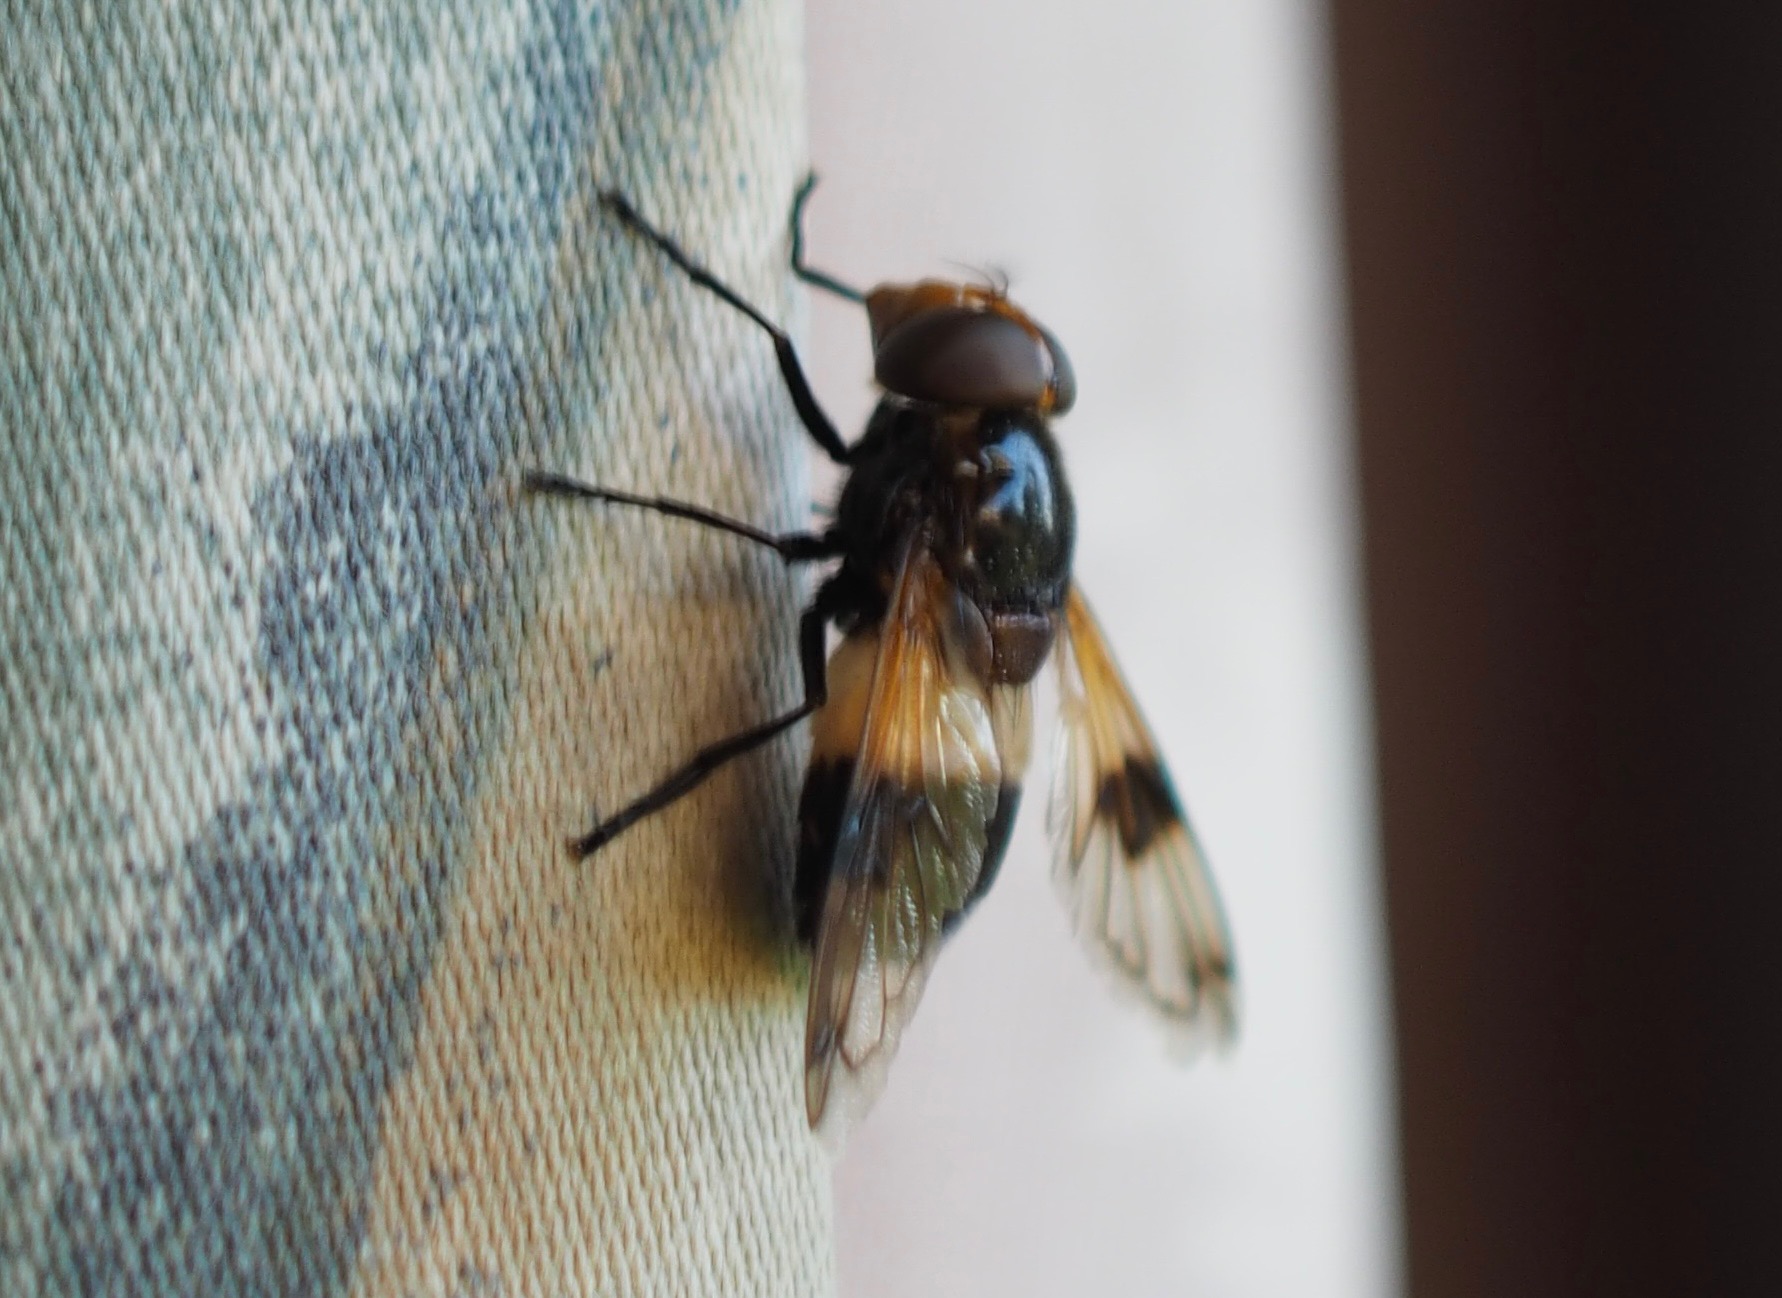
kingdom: Animalia
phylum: Arthropoda
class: Insecta
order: Diptera
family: Syrphidae
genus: Volucella
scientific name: Volucella pellucens
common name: Hvidbåndet humlesvirreflue
